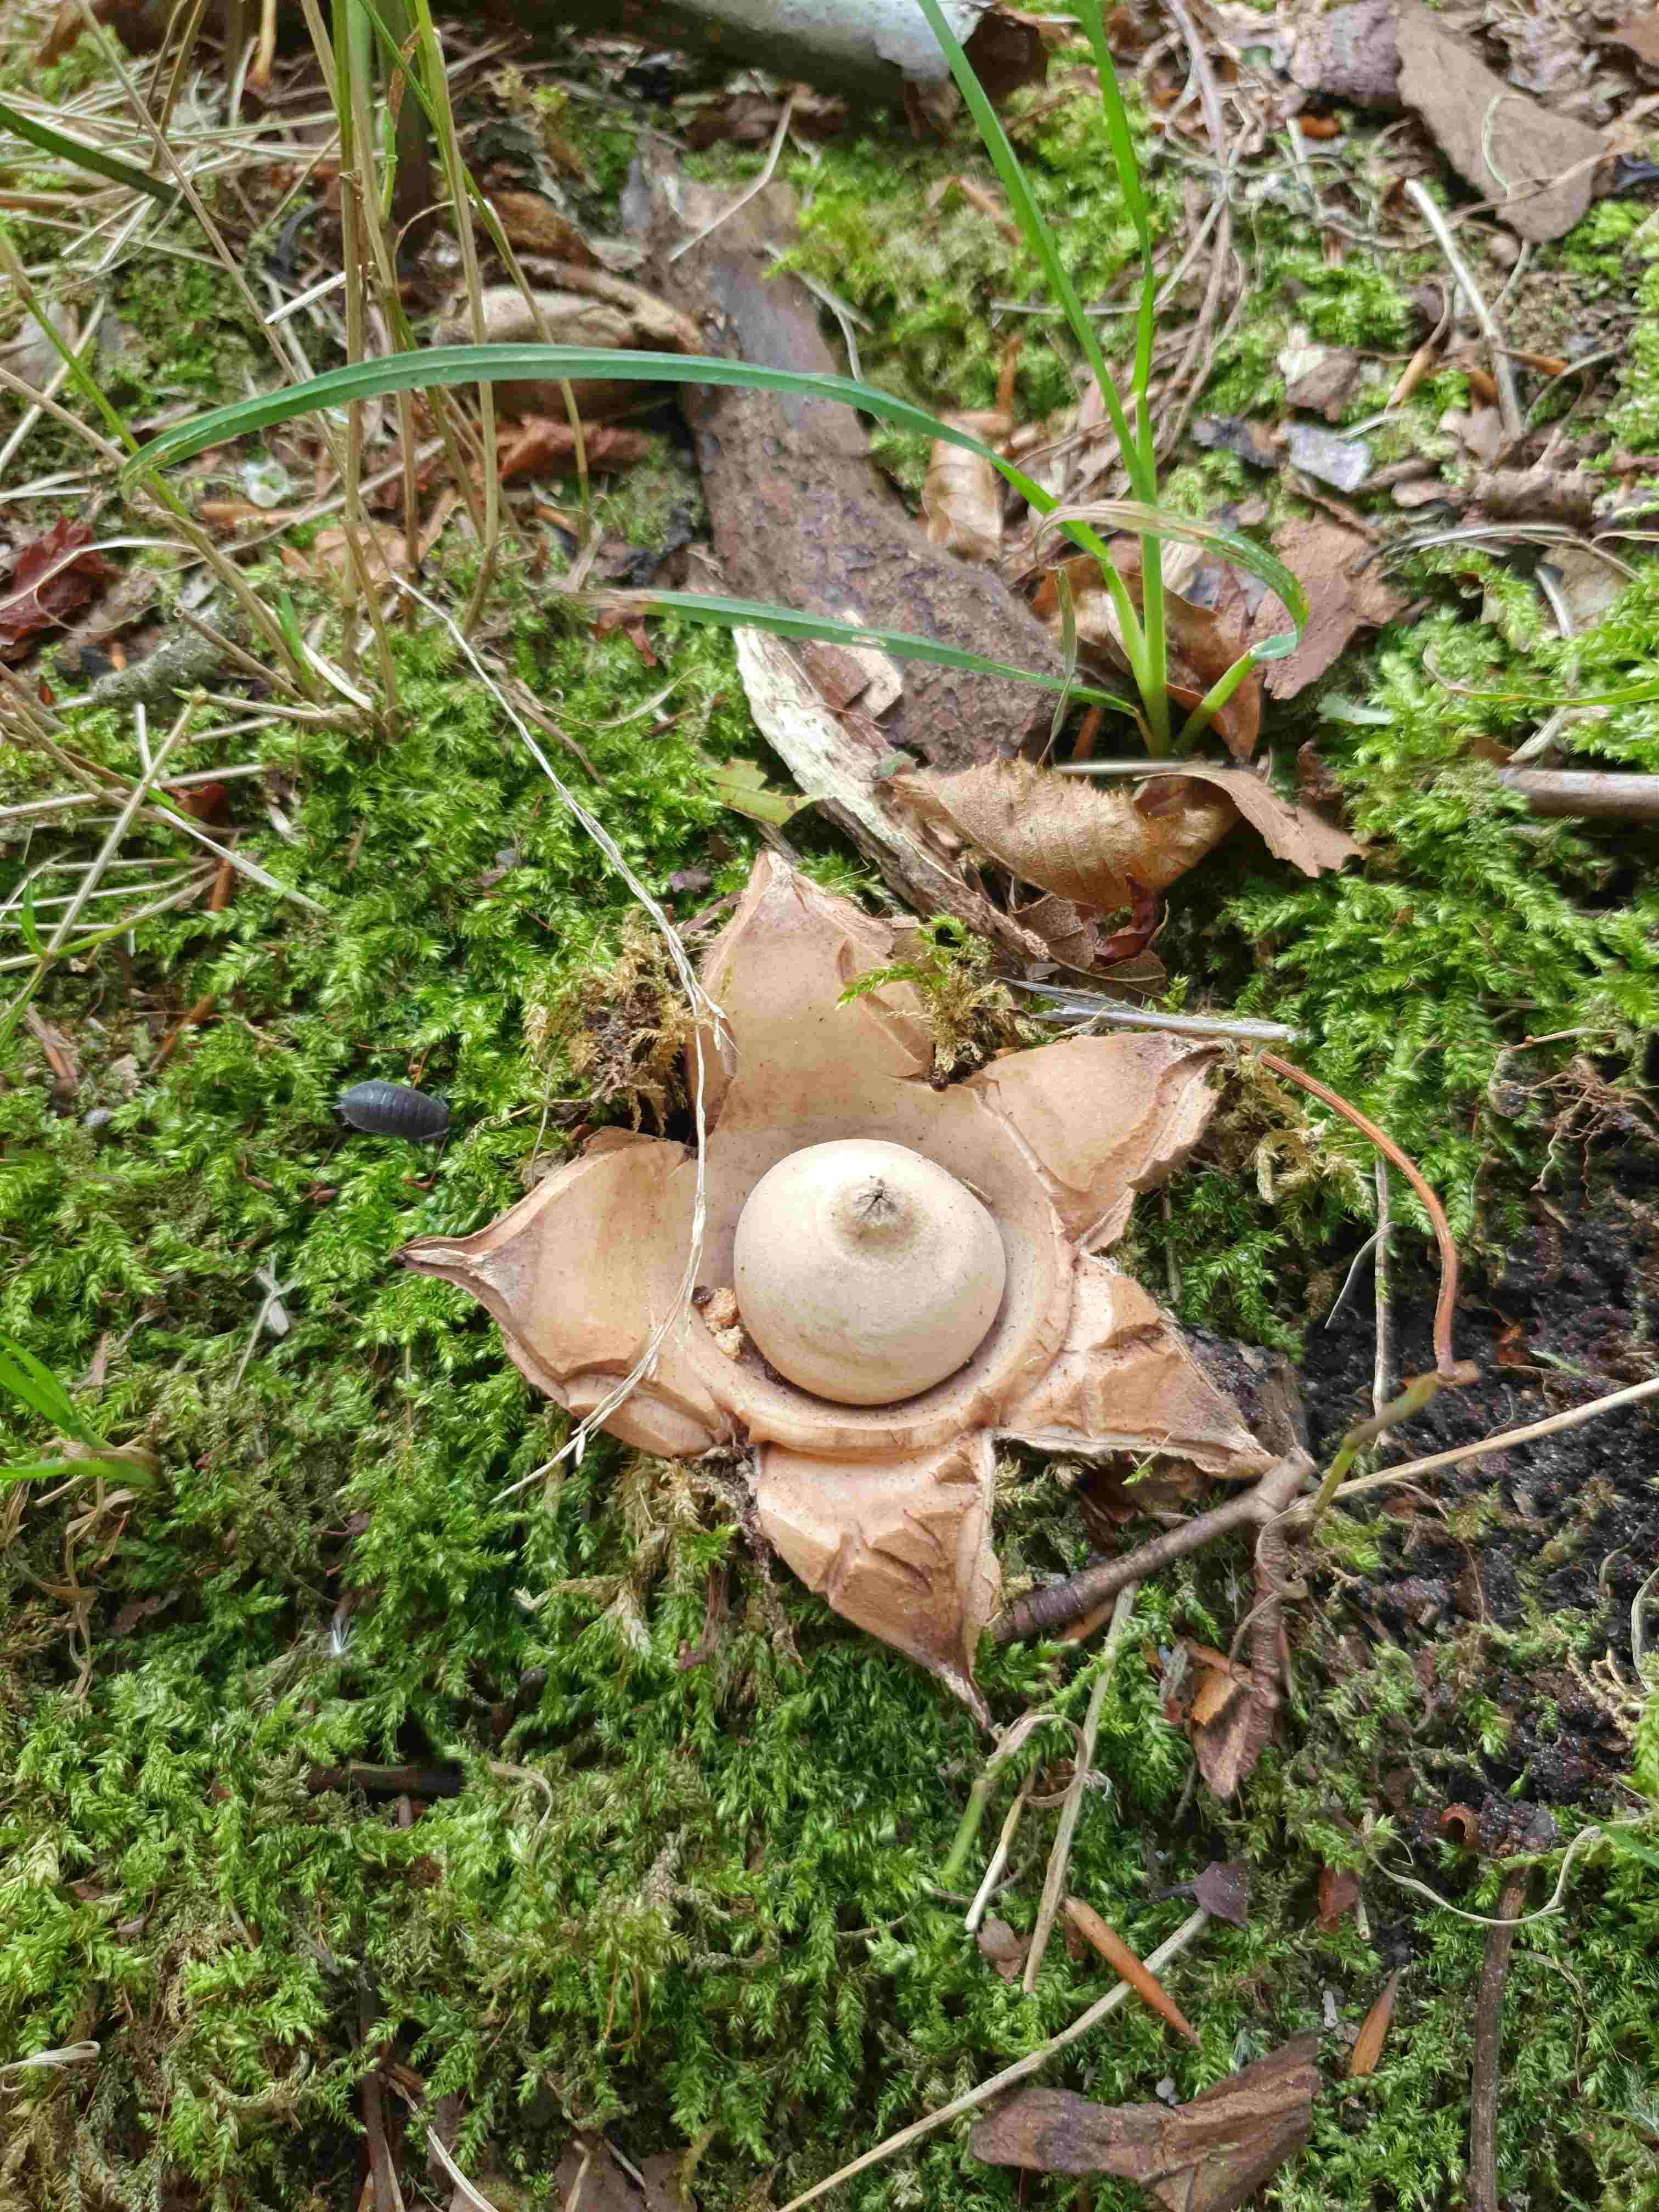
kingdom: Fungi
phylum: Basidiomycota
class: Agaricomycetes
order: Geastrales
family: Geastraceae
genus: Geastrum
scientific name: Geastrum michelianum
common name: kødet stjernebold
